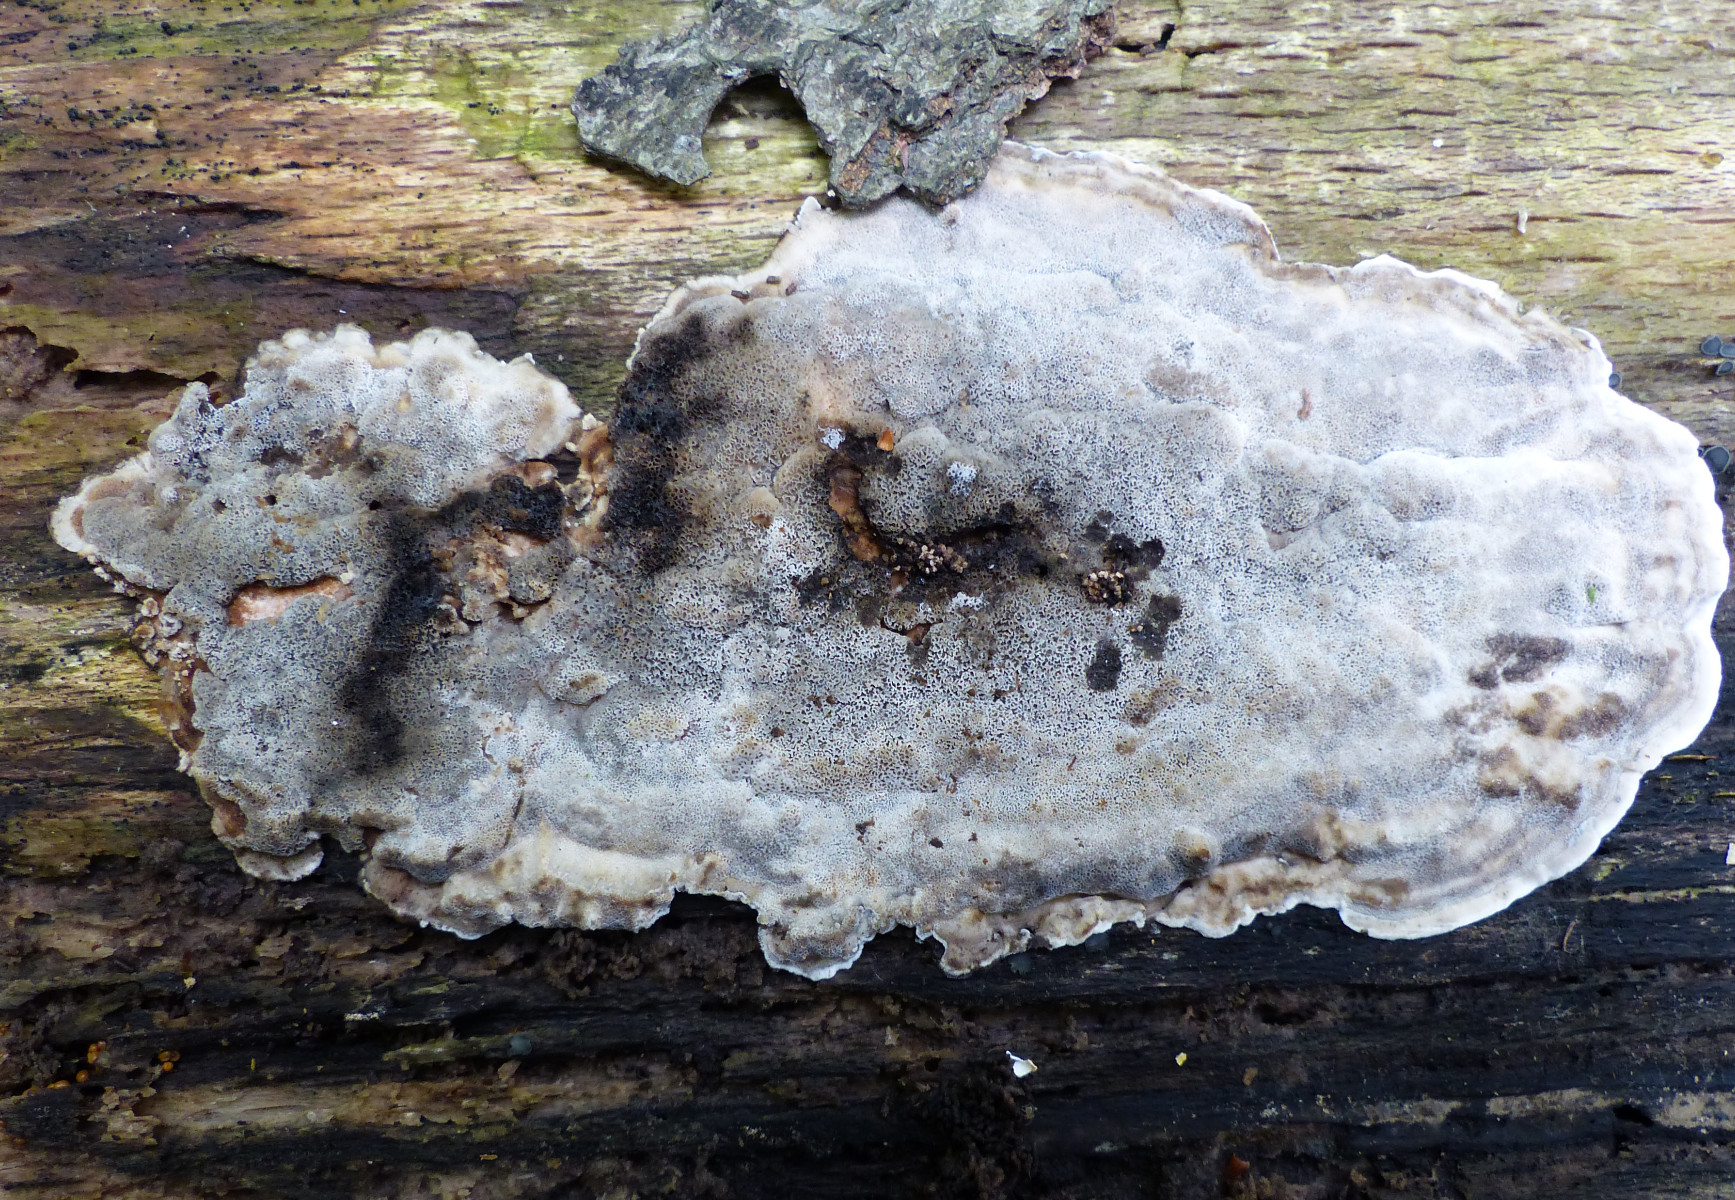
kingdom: Fungi
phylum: Basidiomycota
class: Agaricomycetes
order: Polyporales
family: Phanerochaetaceae
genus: Bjerkandera
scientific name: Bjerkandera adusta
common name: sveden sodporesvamp
